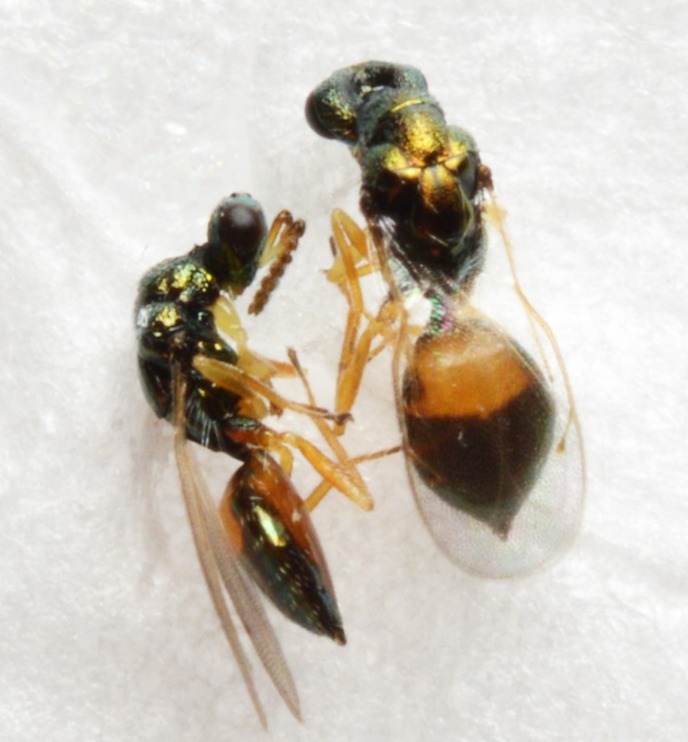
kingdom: Animalia
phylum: Arthropoda
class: Insecta
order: Hymenoptera
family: Eulophidae
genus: Elachertus
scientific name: Elachertus lateralis
